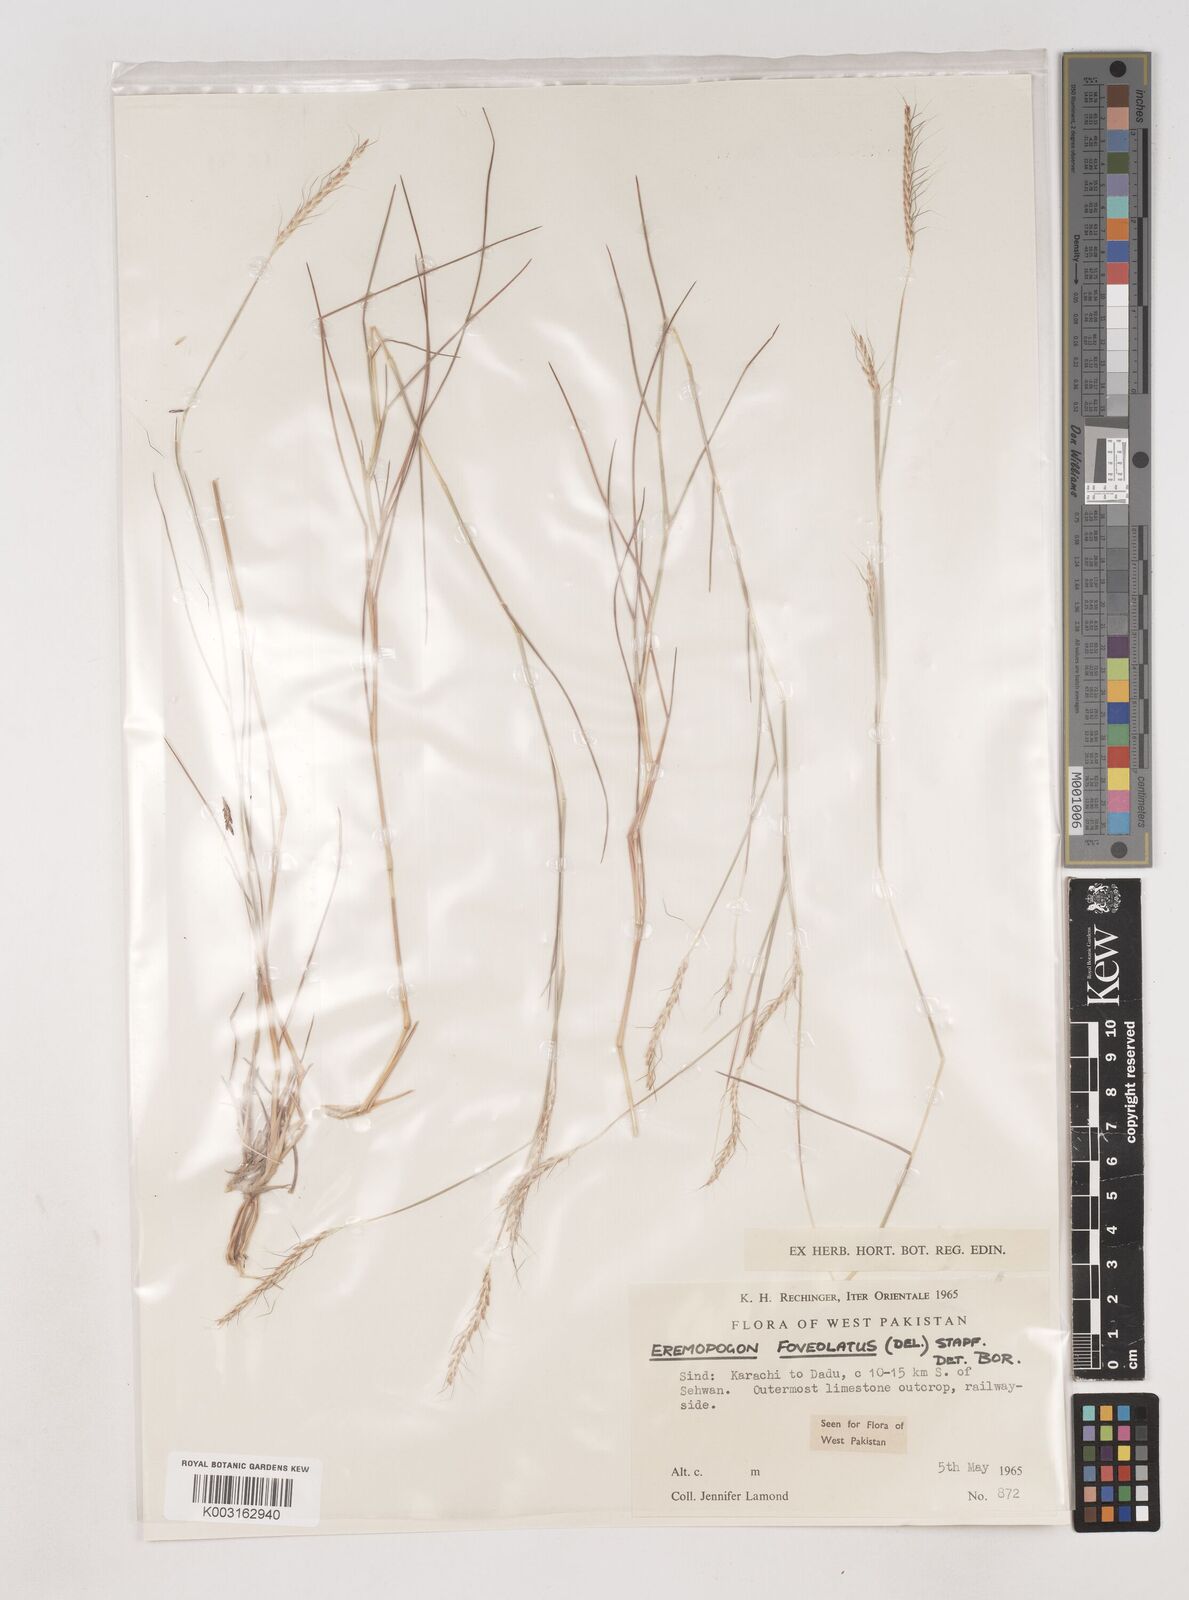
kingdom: Plantae
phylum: Tracheophyta
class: Liliopsida
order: Poales
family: Poaceae
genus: Dichanthium
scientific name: Dichanthium
